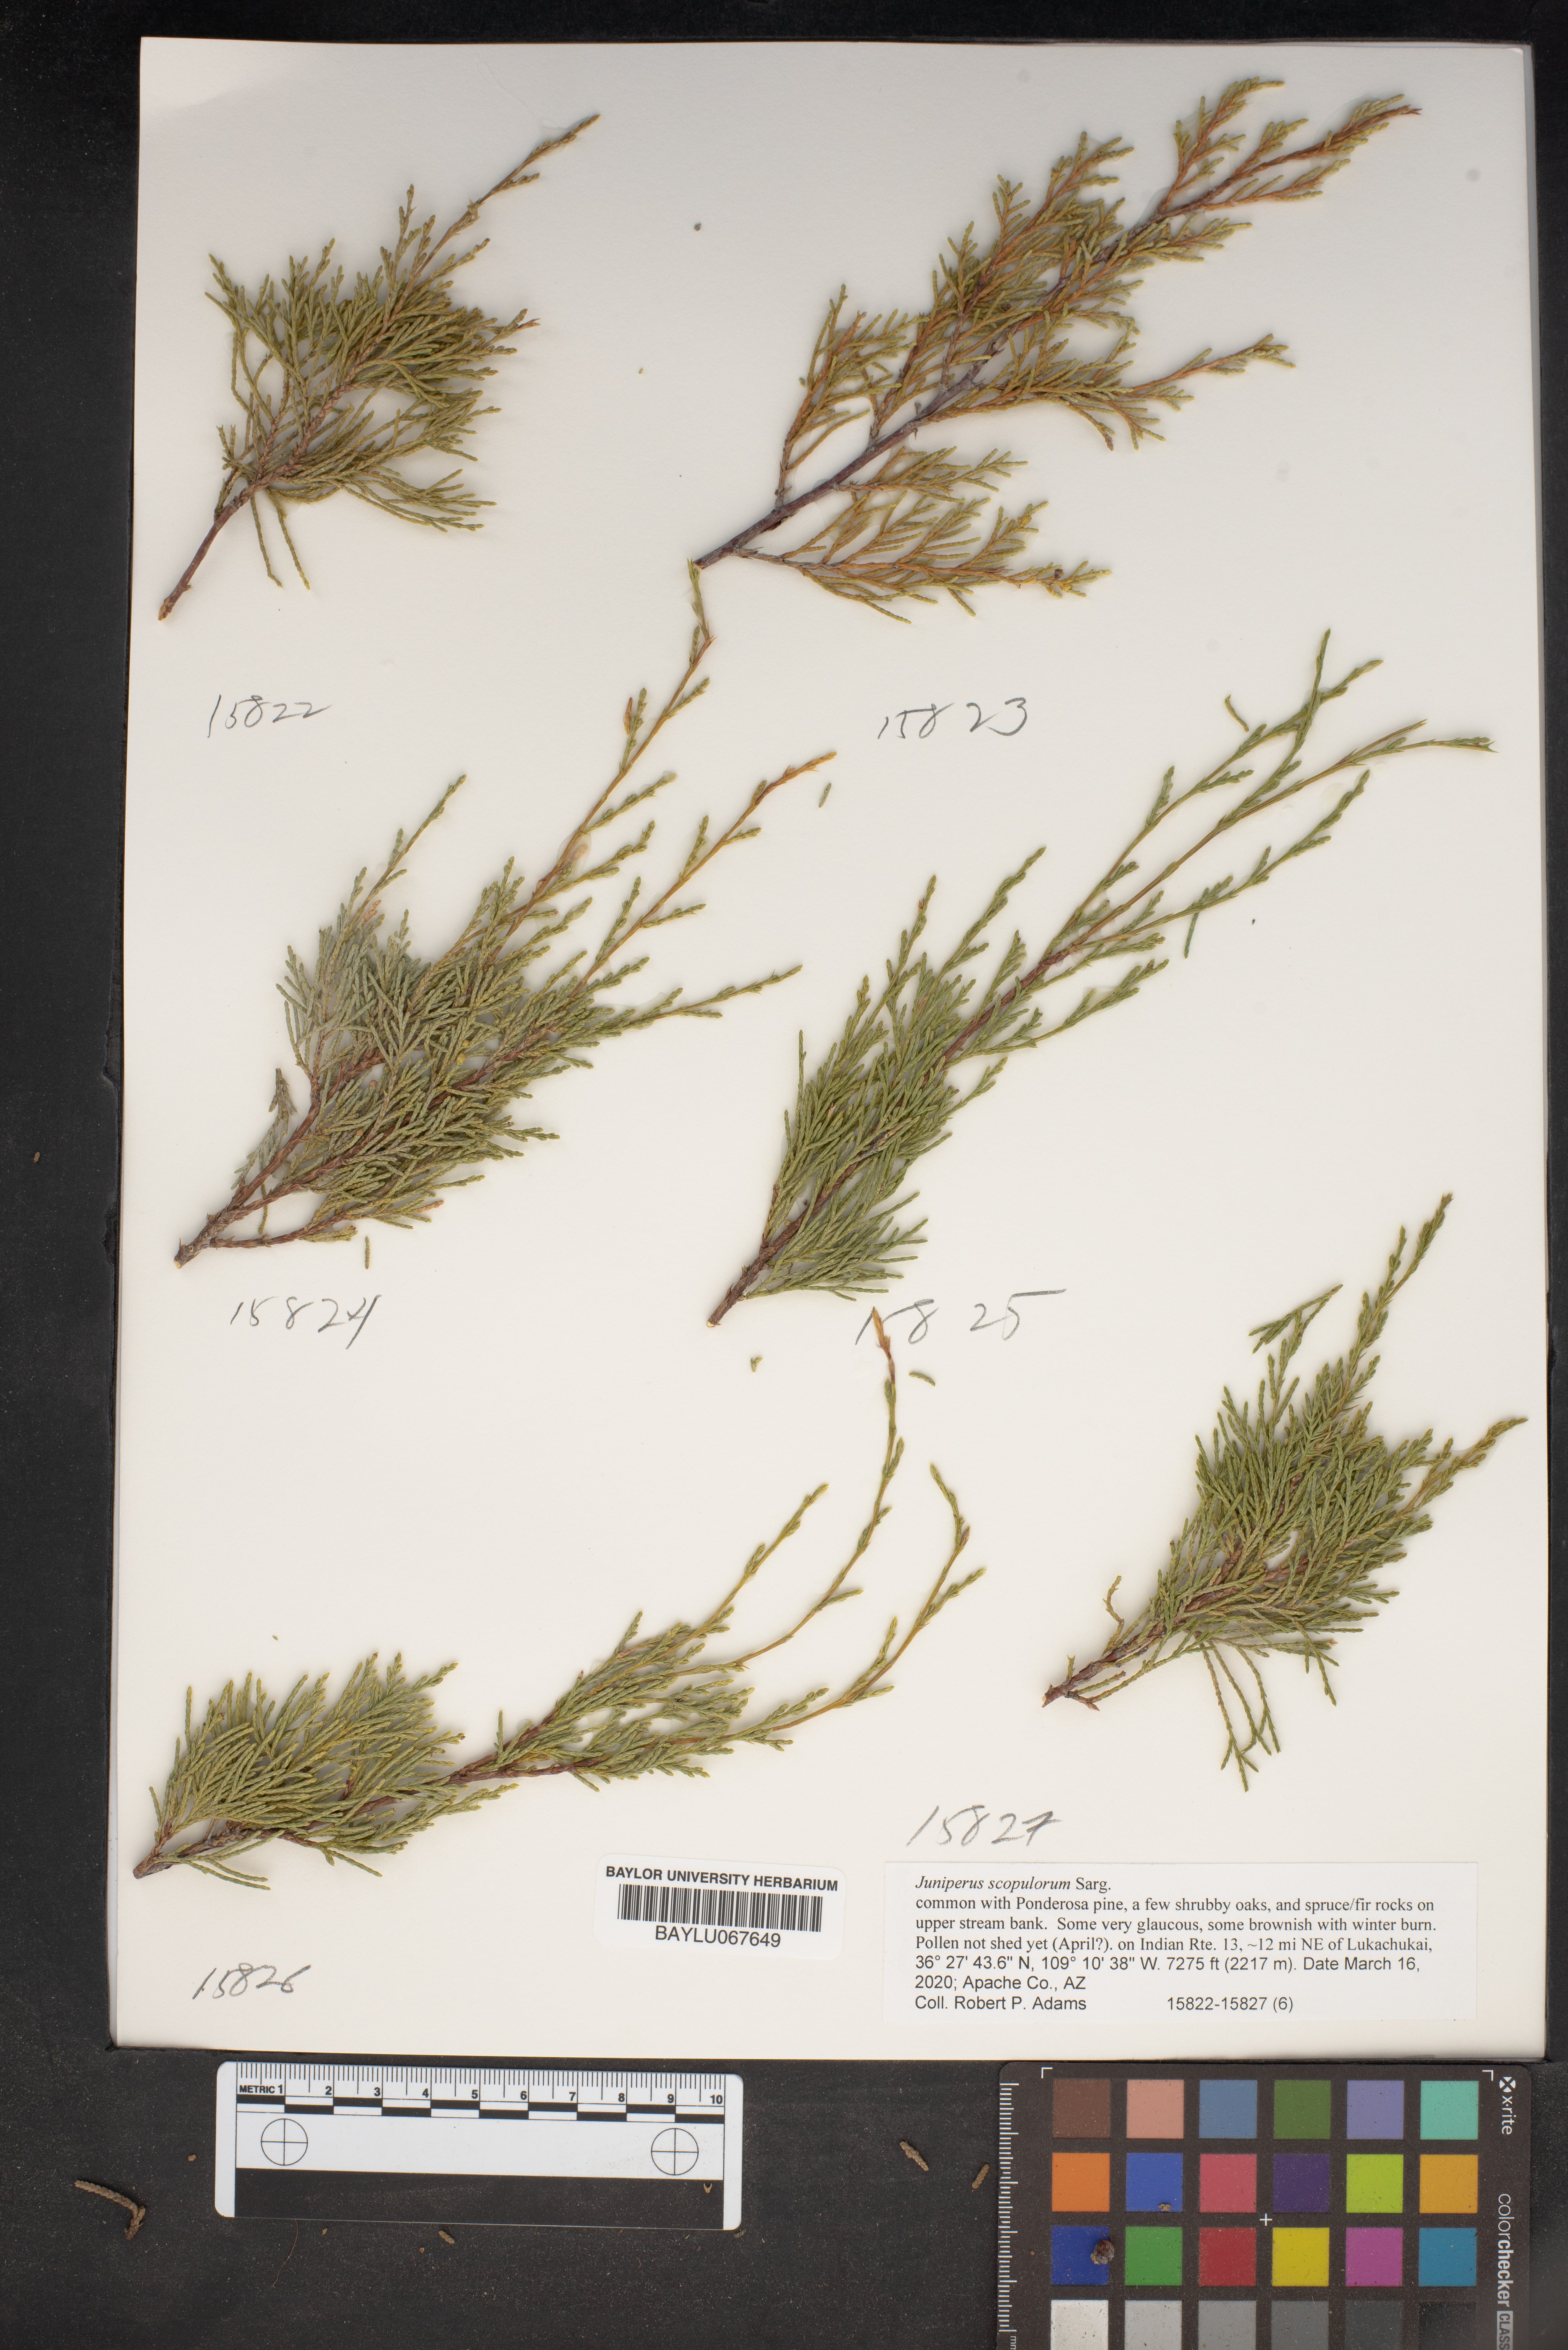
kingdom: Plantae
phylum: Tracheophyta
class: Pinopsida
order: Pinales
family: Cupressaceae
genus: Juniperus
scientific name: Juniperus scopulorum
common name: Rocky mountain juniper
